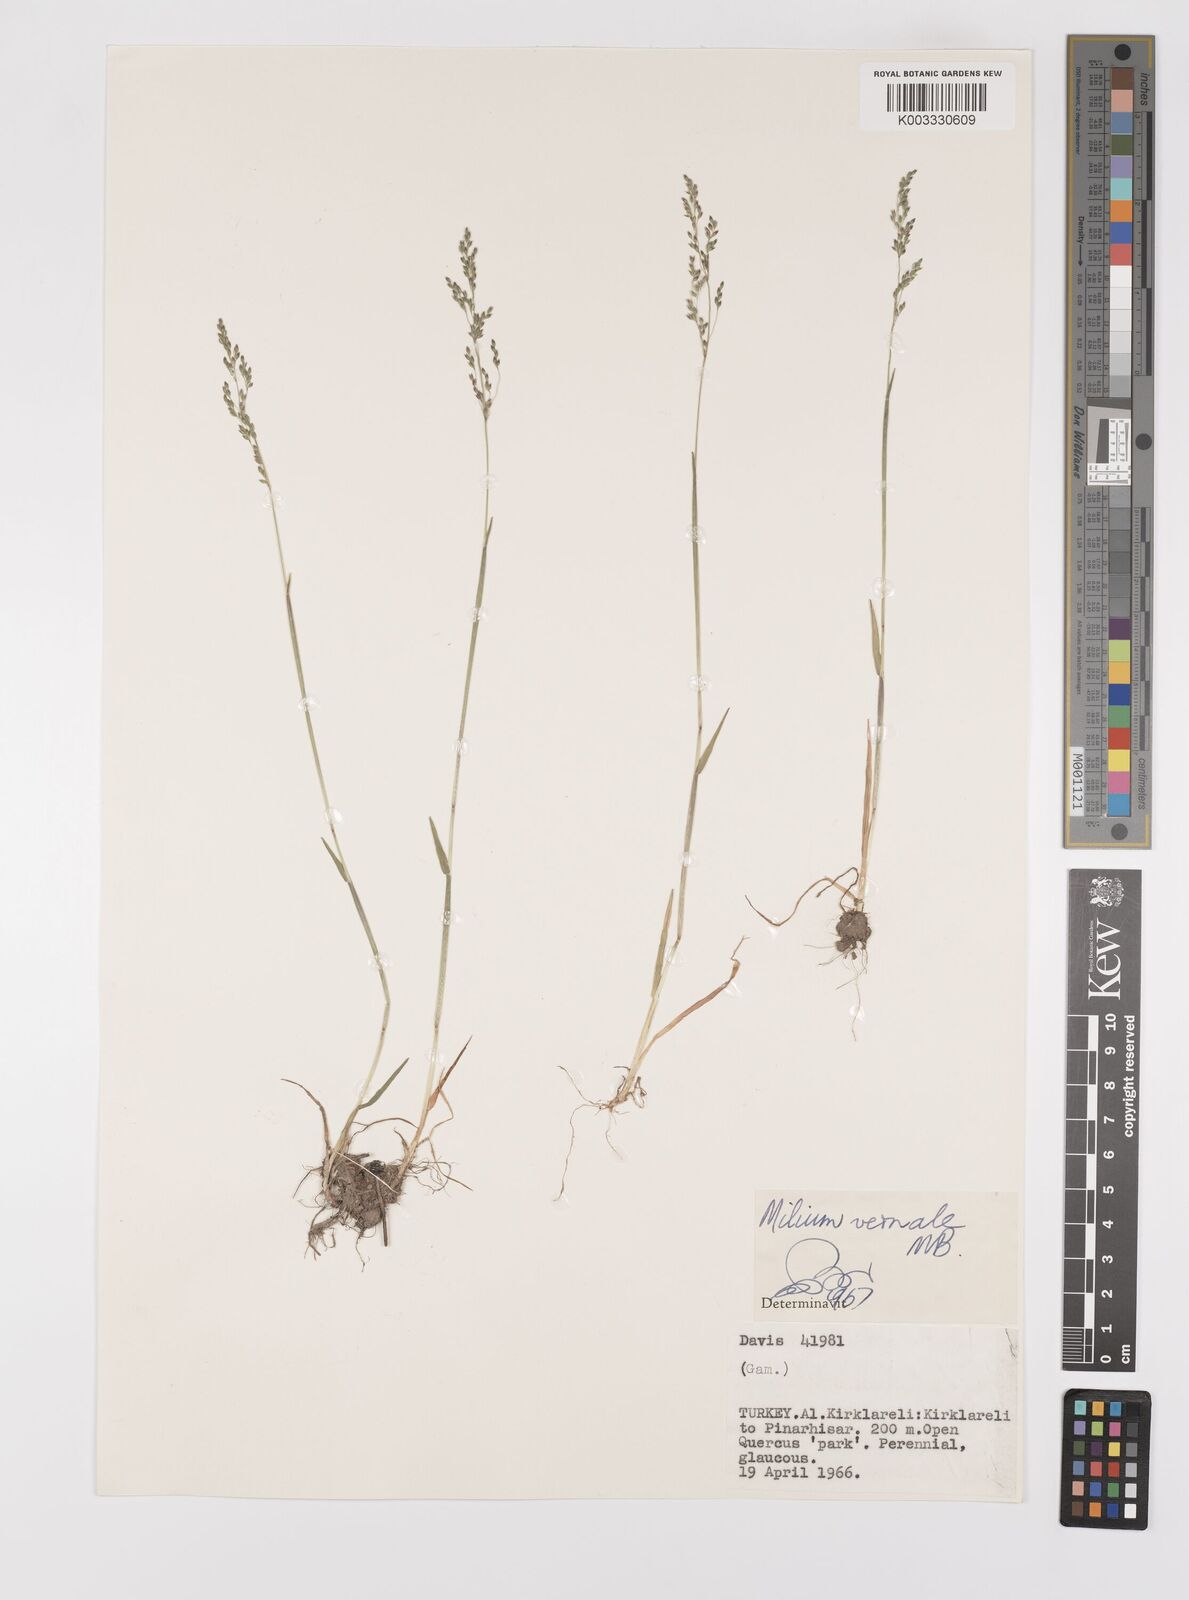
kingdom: Plantae
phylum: Tracheophyta
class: Liliopsida
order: Poales
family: Poaceae
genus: Milium
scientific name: Milium vernale
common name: Early millet
